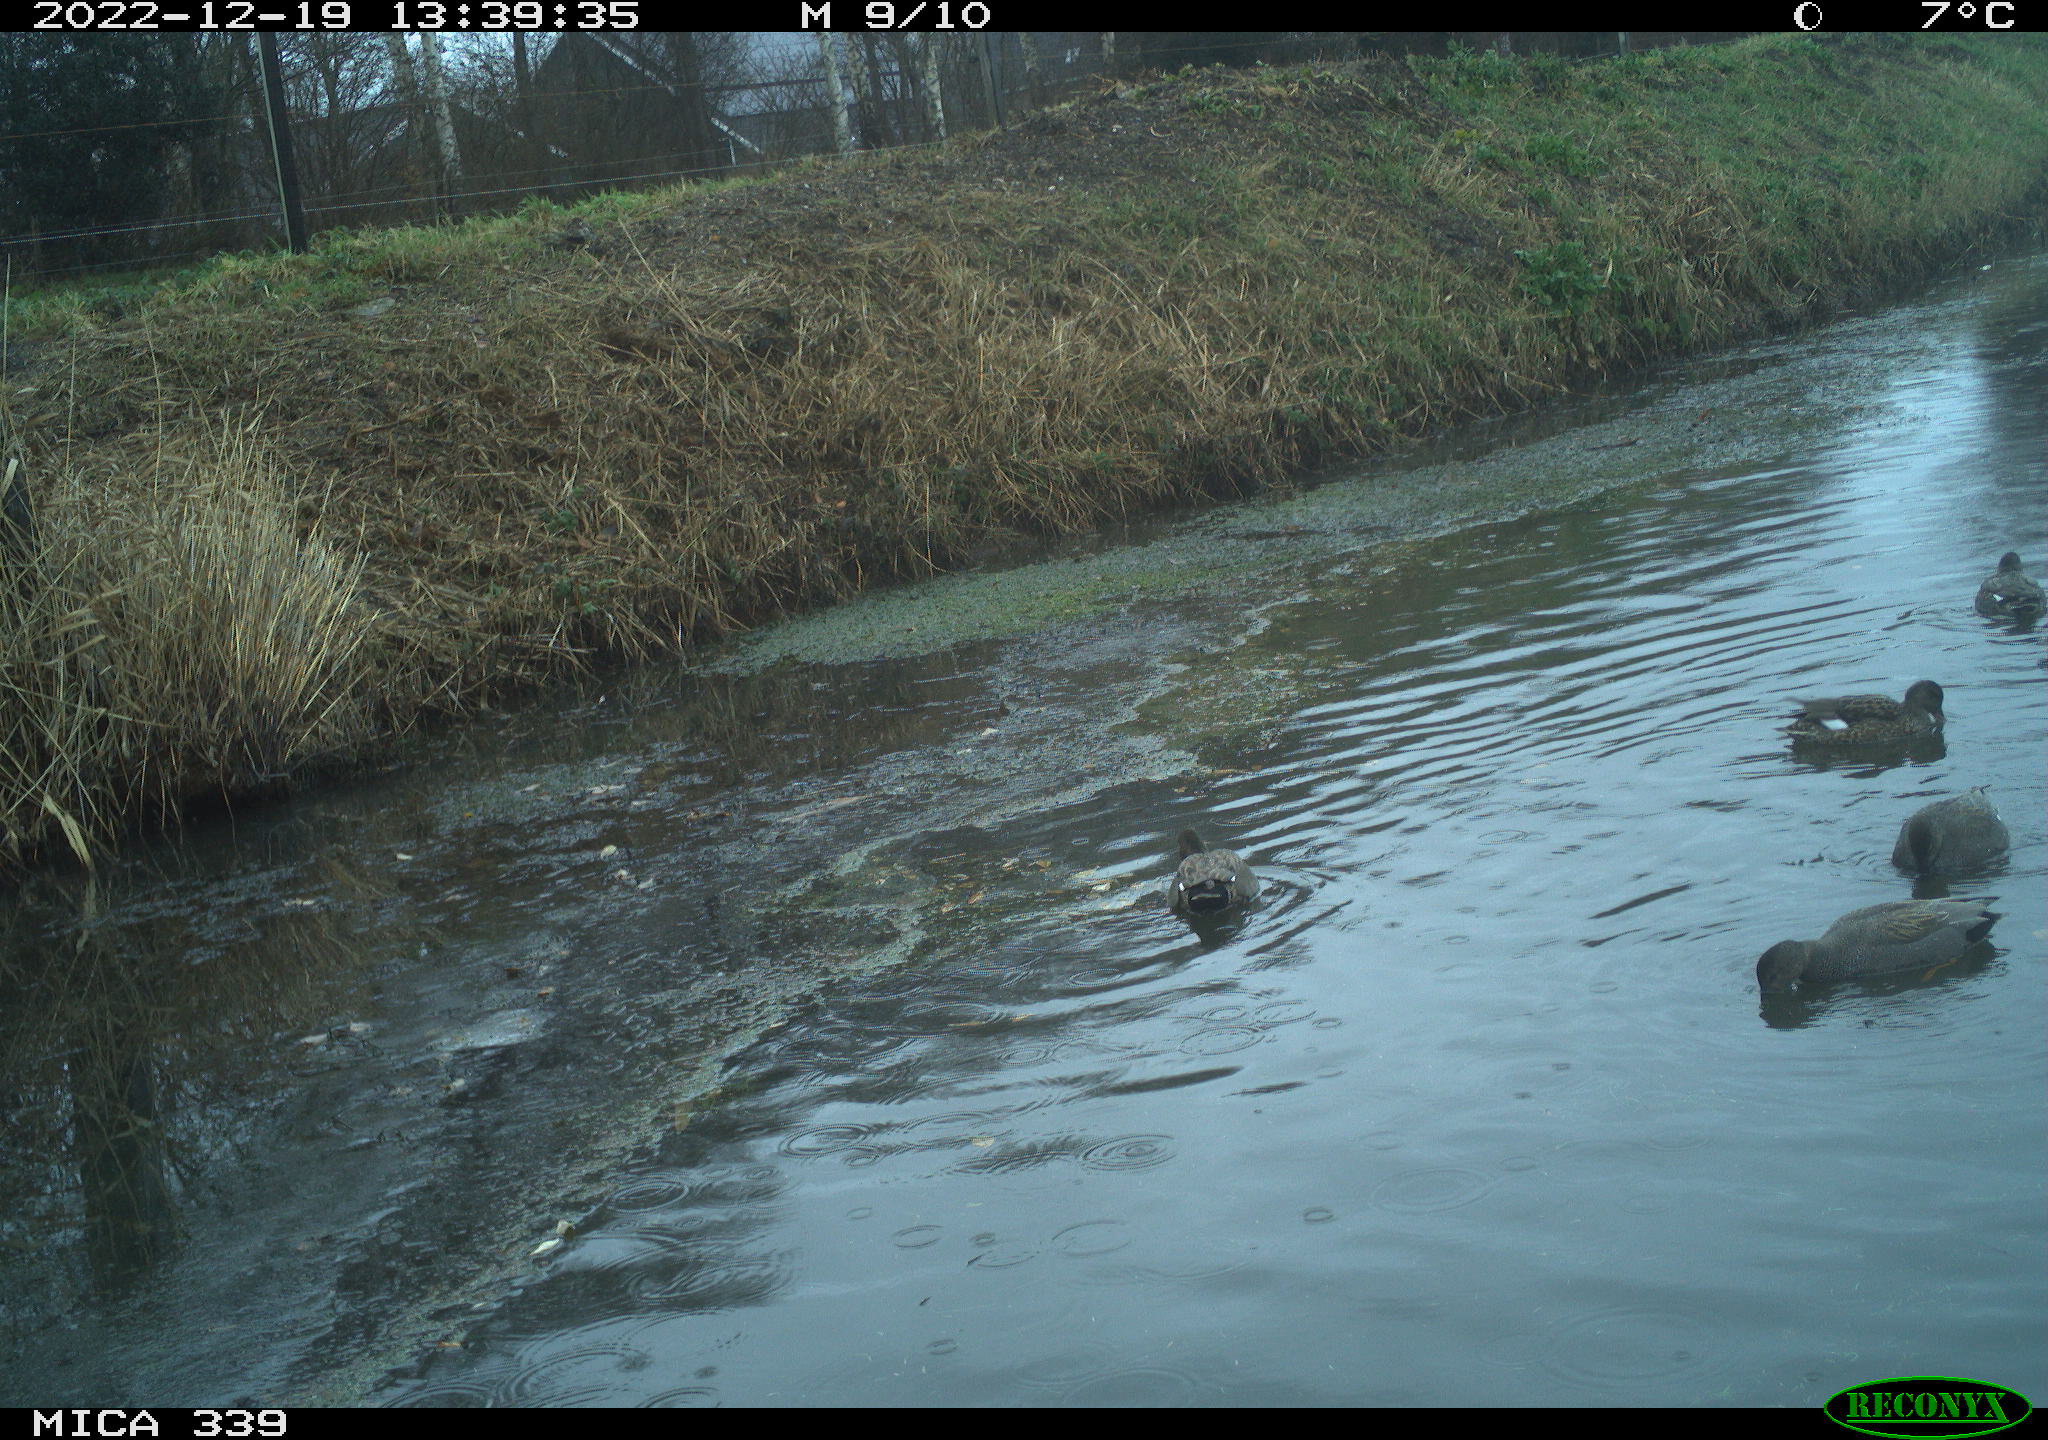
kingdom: Animalia
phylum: Chordata
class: Aves
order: Anseriformes
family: Anatidae
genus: Anas
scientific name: Anas
